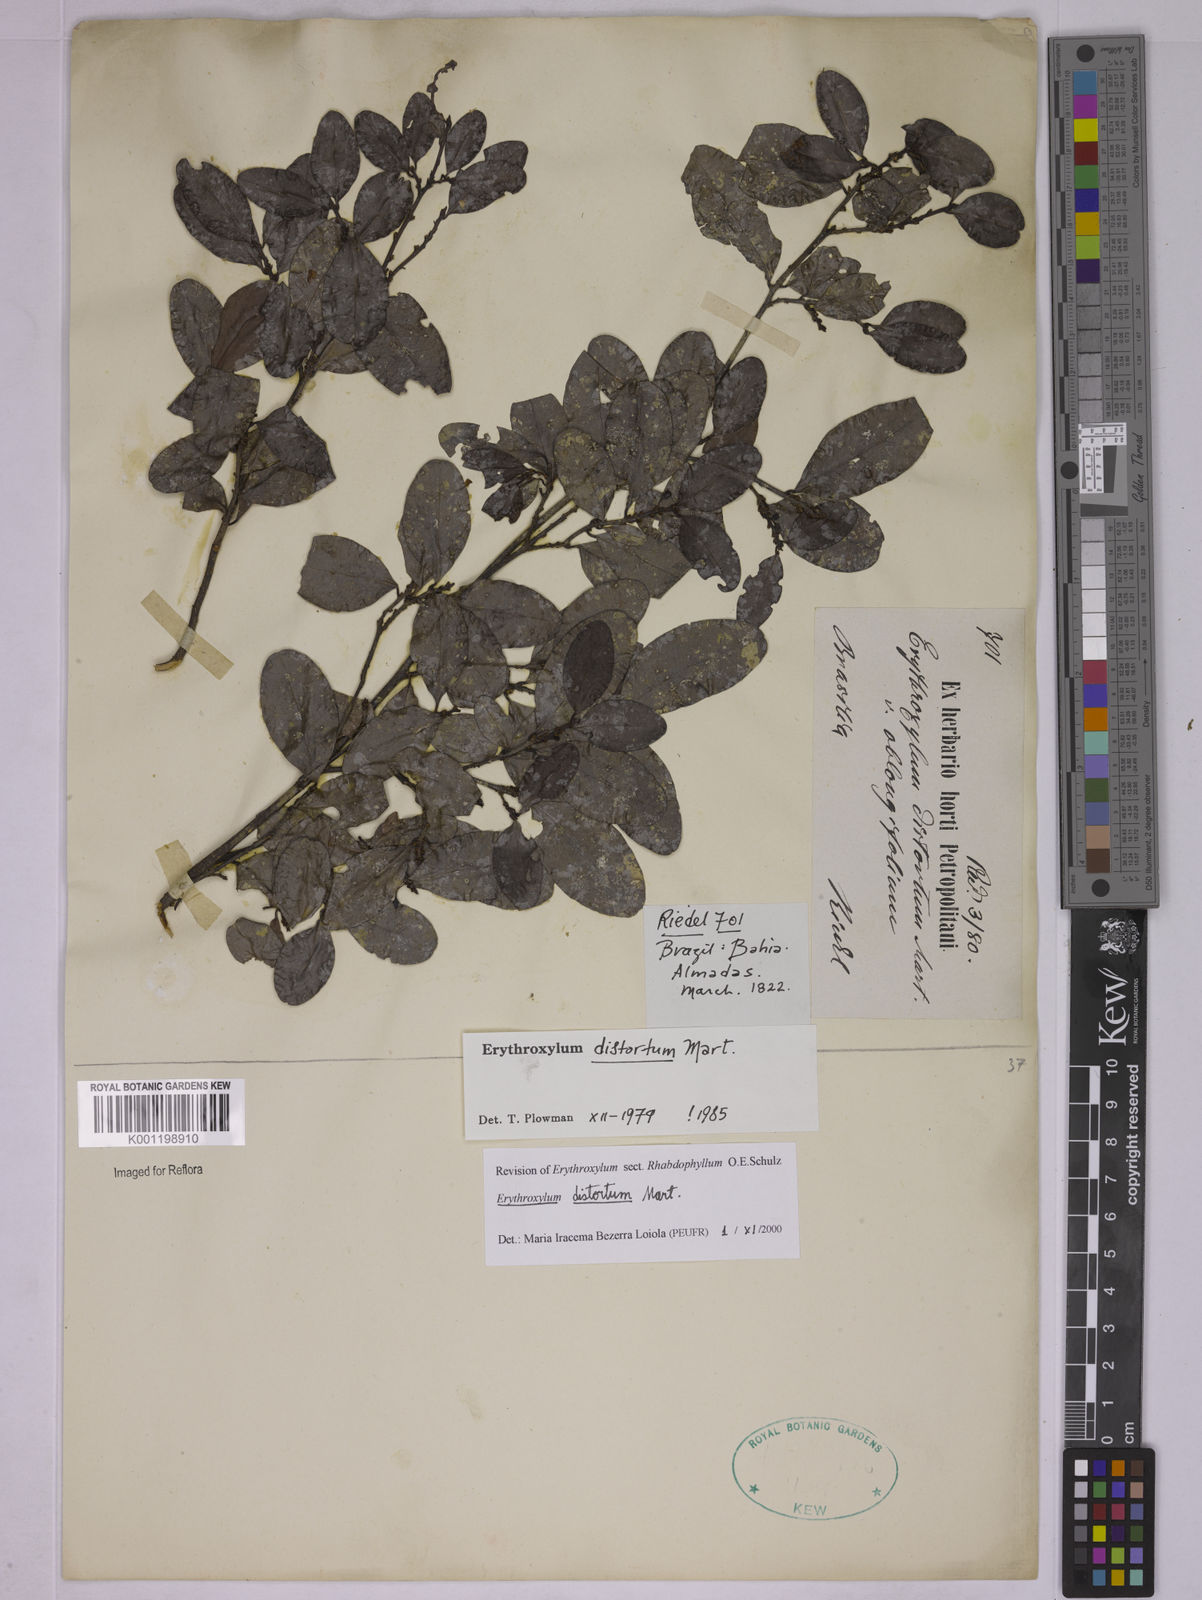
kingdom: Plantae
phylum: Tracheophyta
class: Magnoliopsida
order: Malpighiales
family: Erythroxylaceae
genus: Erythroxylum
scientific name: Erythroxylum distortum
